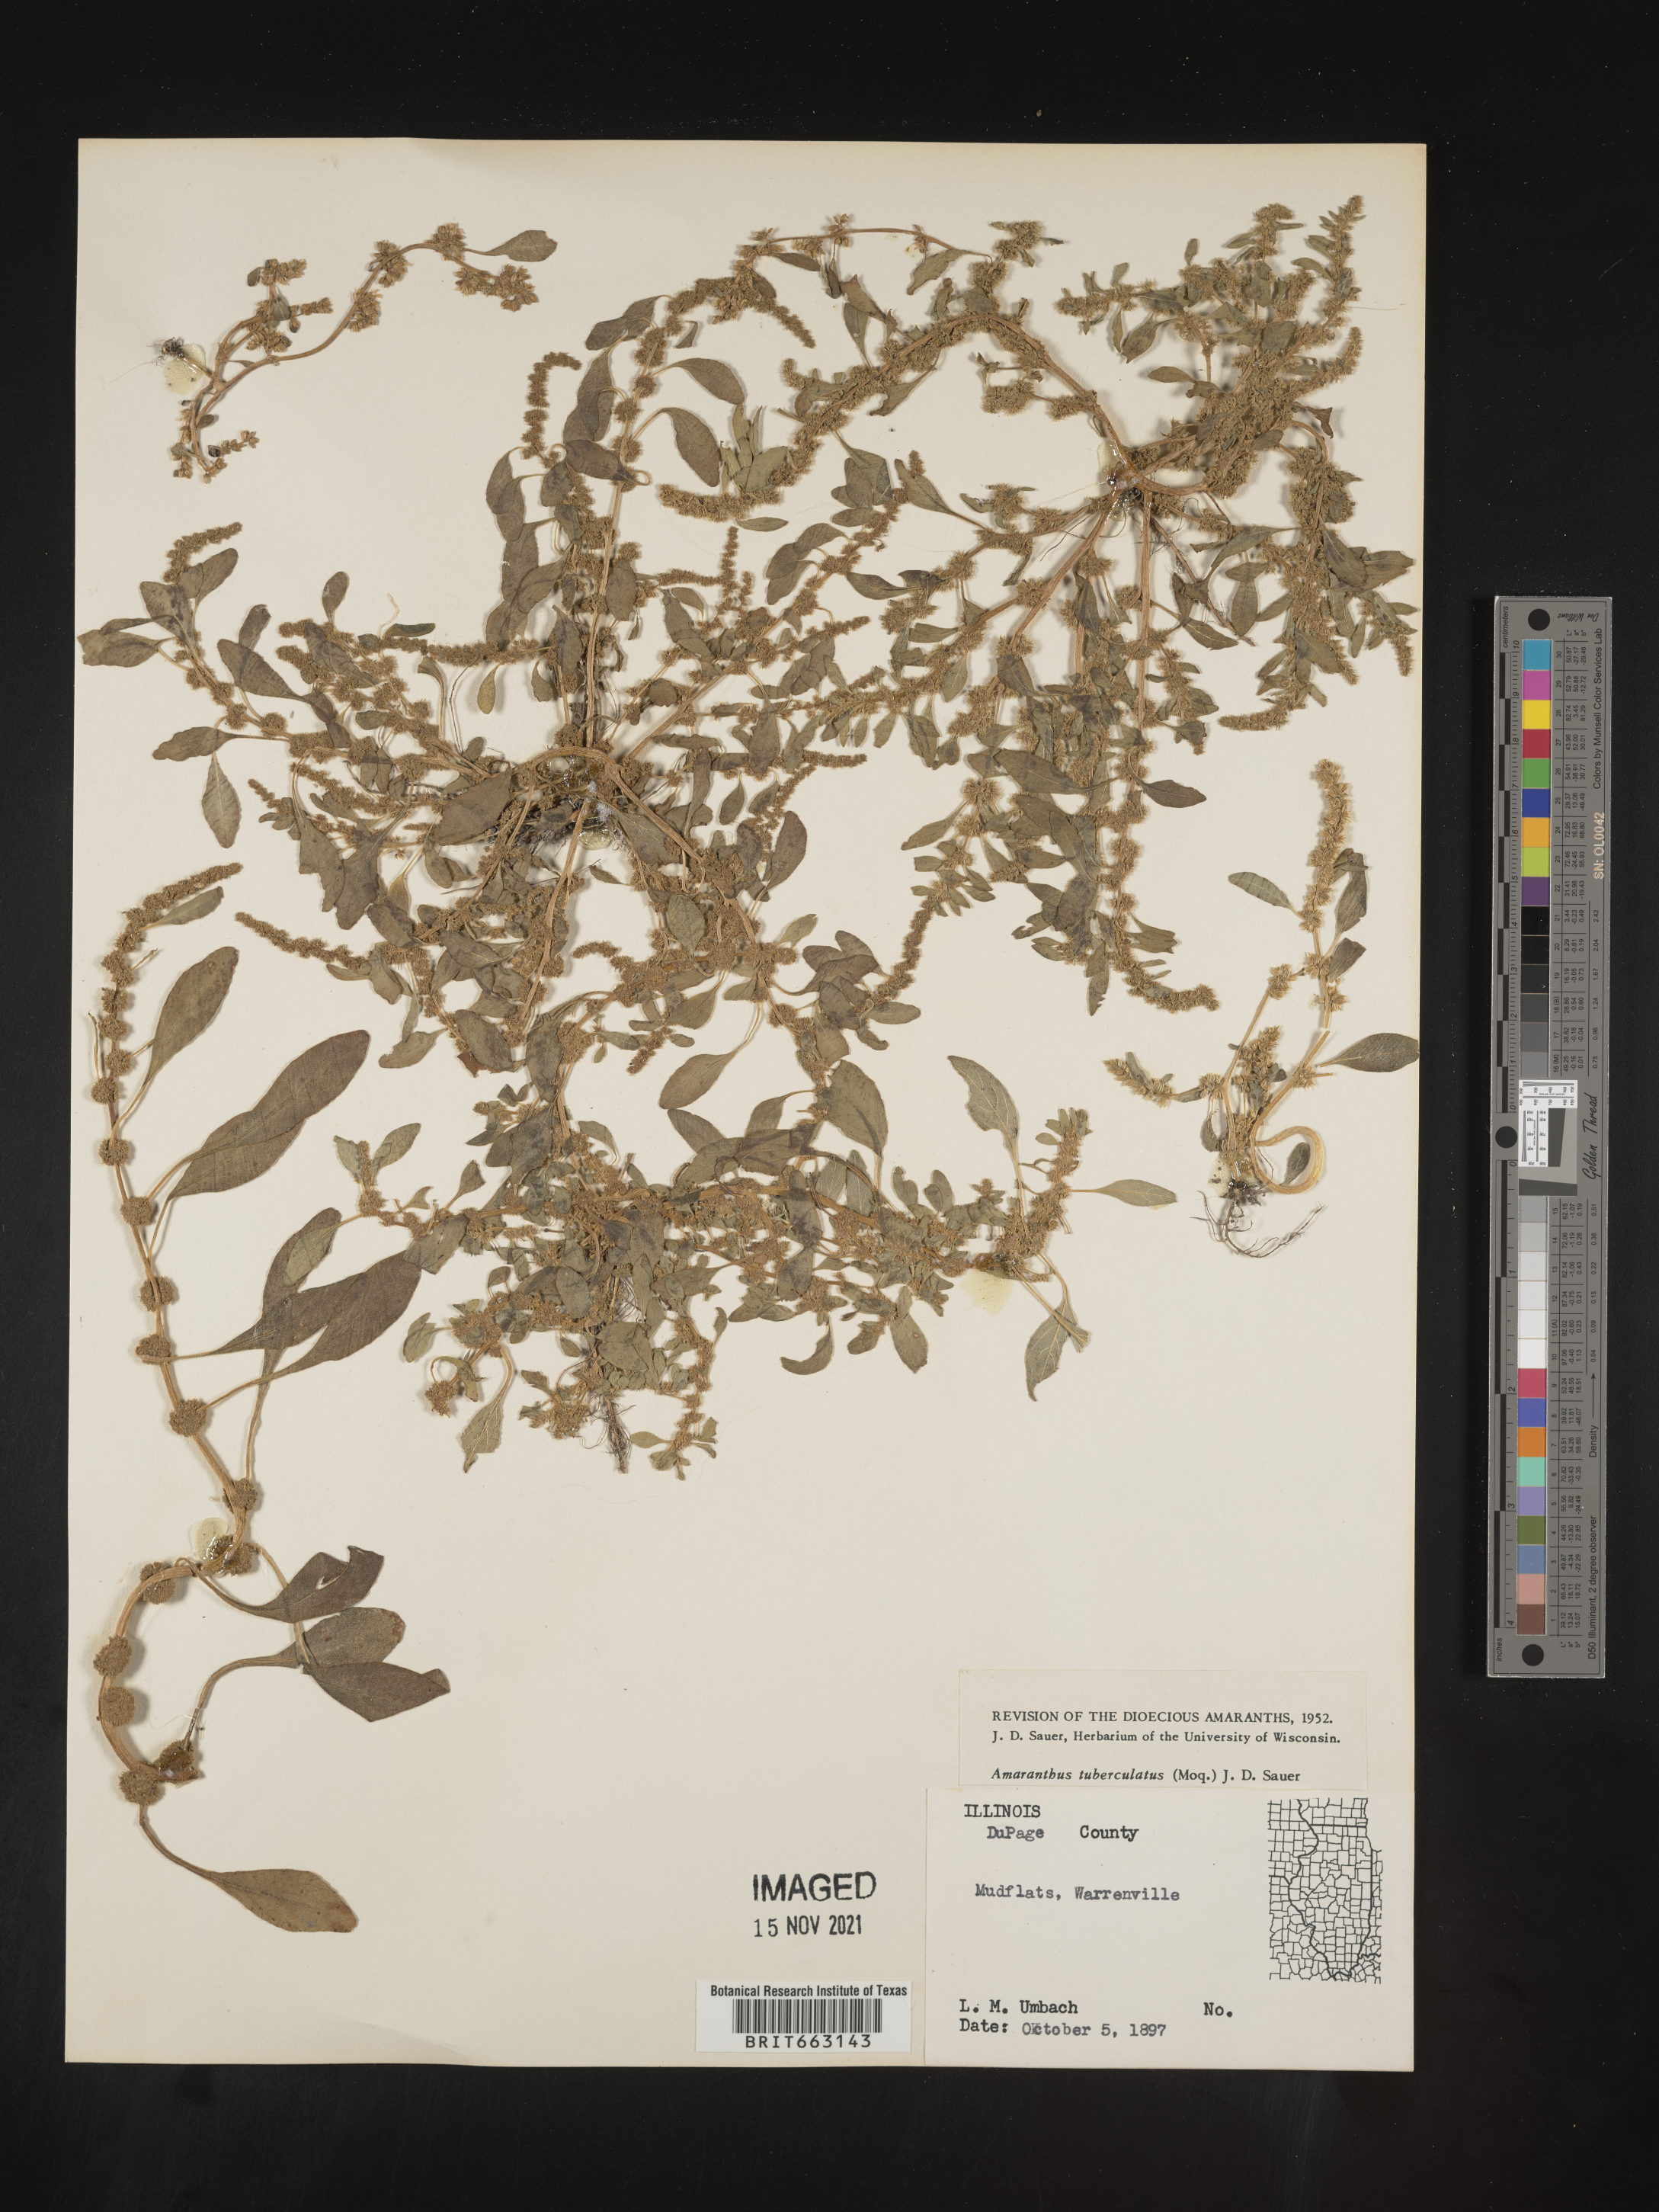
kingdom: Plantae
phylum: Tracheophyta
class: Magnoliopsida
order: Caryophyllales
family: Amaranthaceae
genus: Amaranthus
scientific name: Amaranthus tuberculatus
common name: Rough-fruit amaranth
